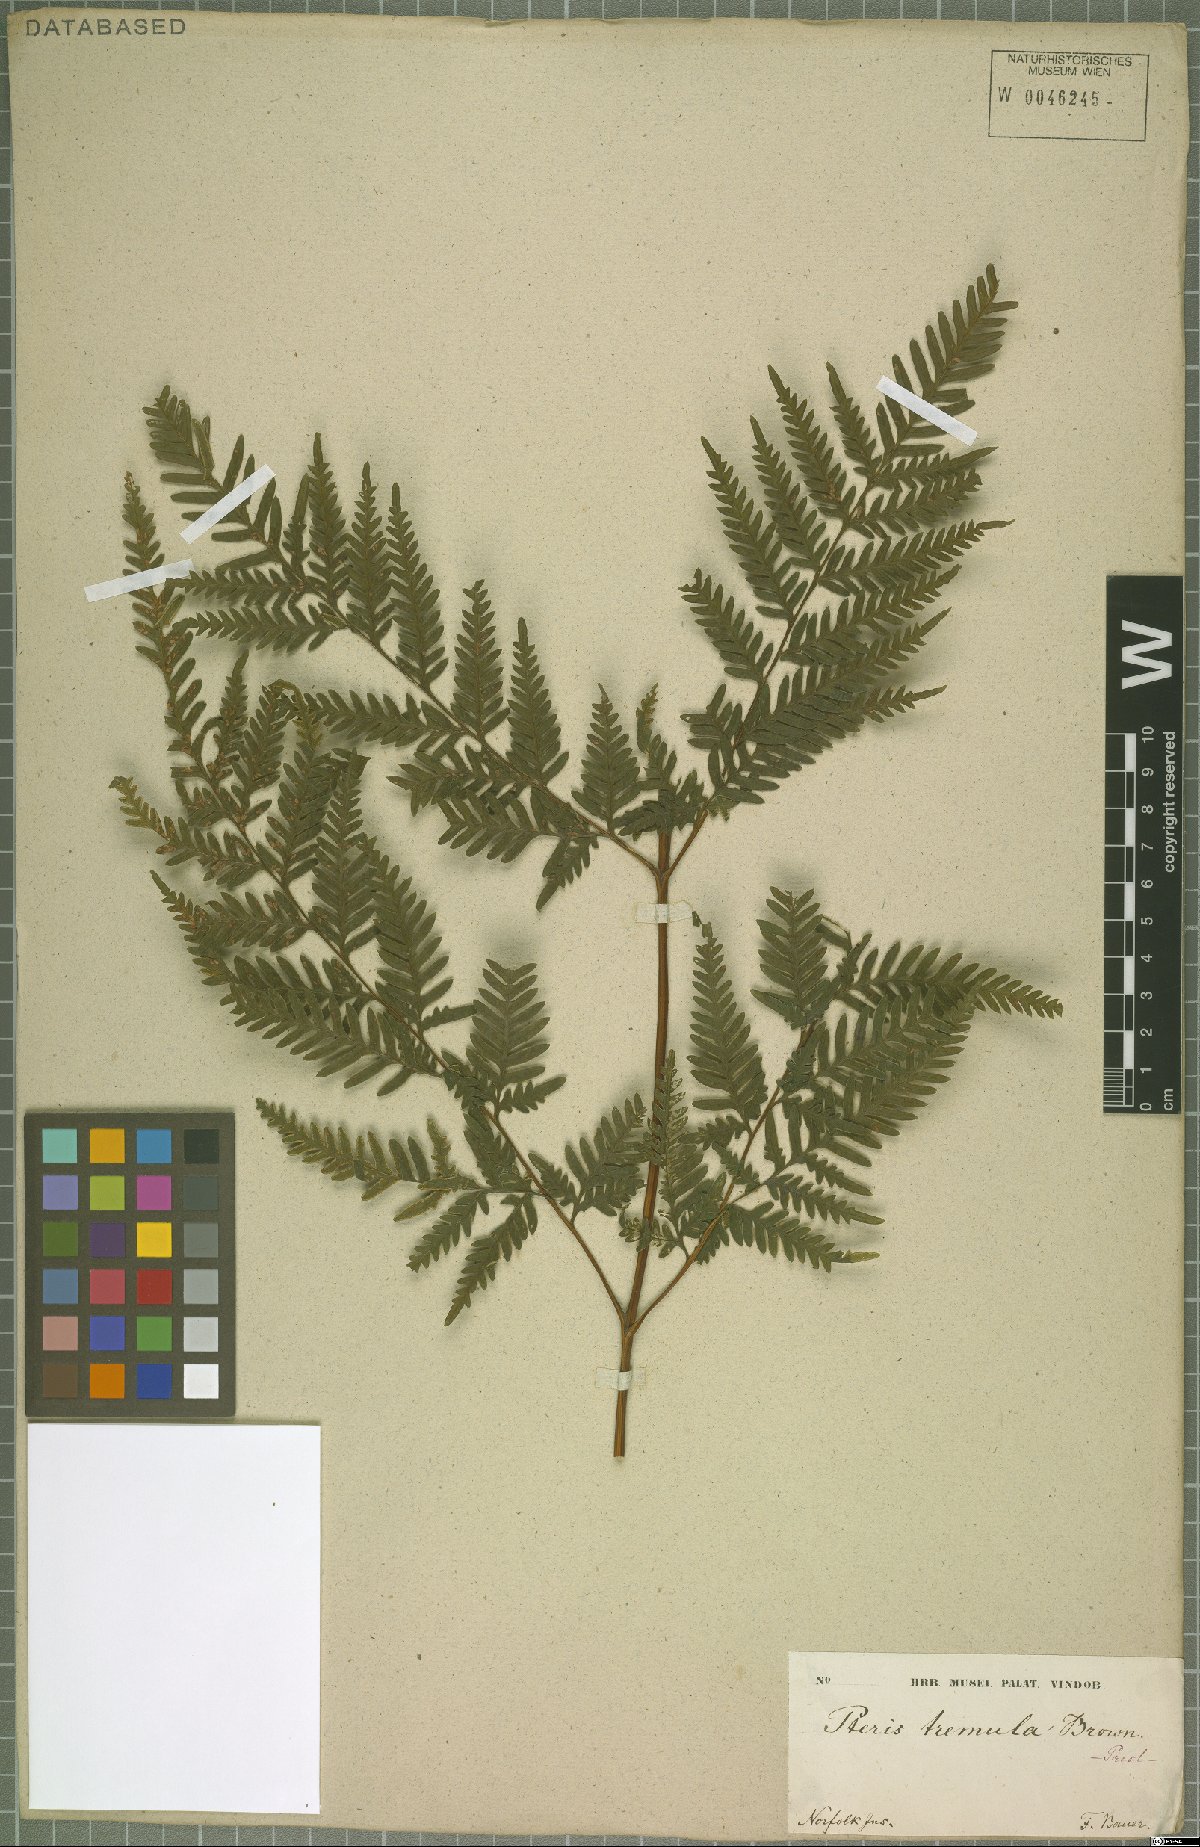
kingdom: Plantae
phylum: Tracheophyta
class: Polypodiopsida
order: Polypodiales
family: Pteridaceae
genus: Pteris
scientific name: Pteris tremula
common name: Australian brake
